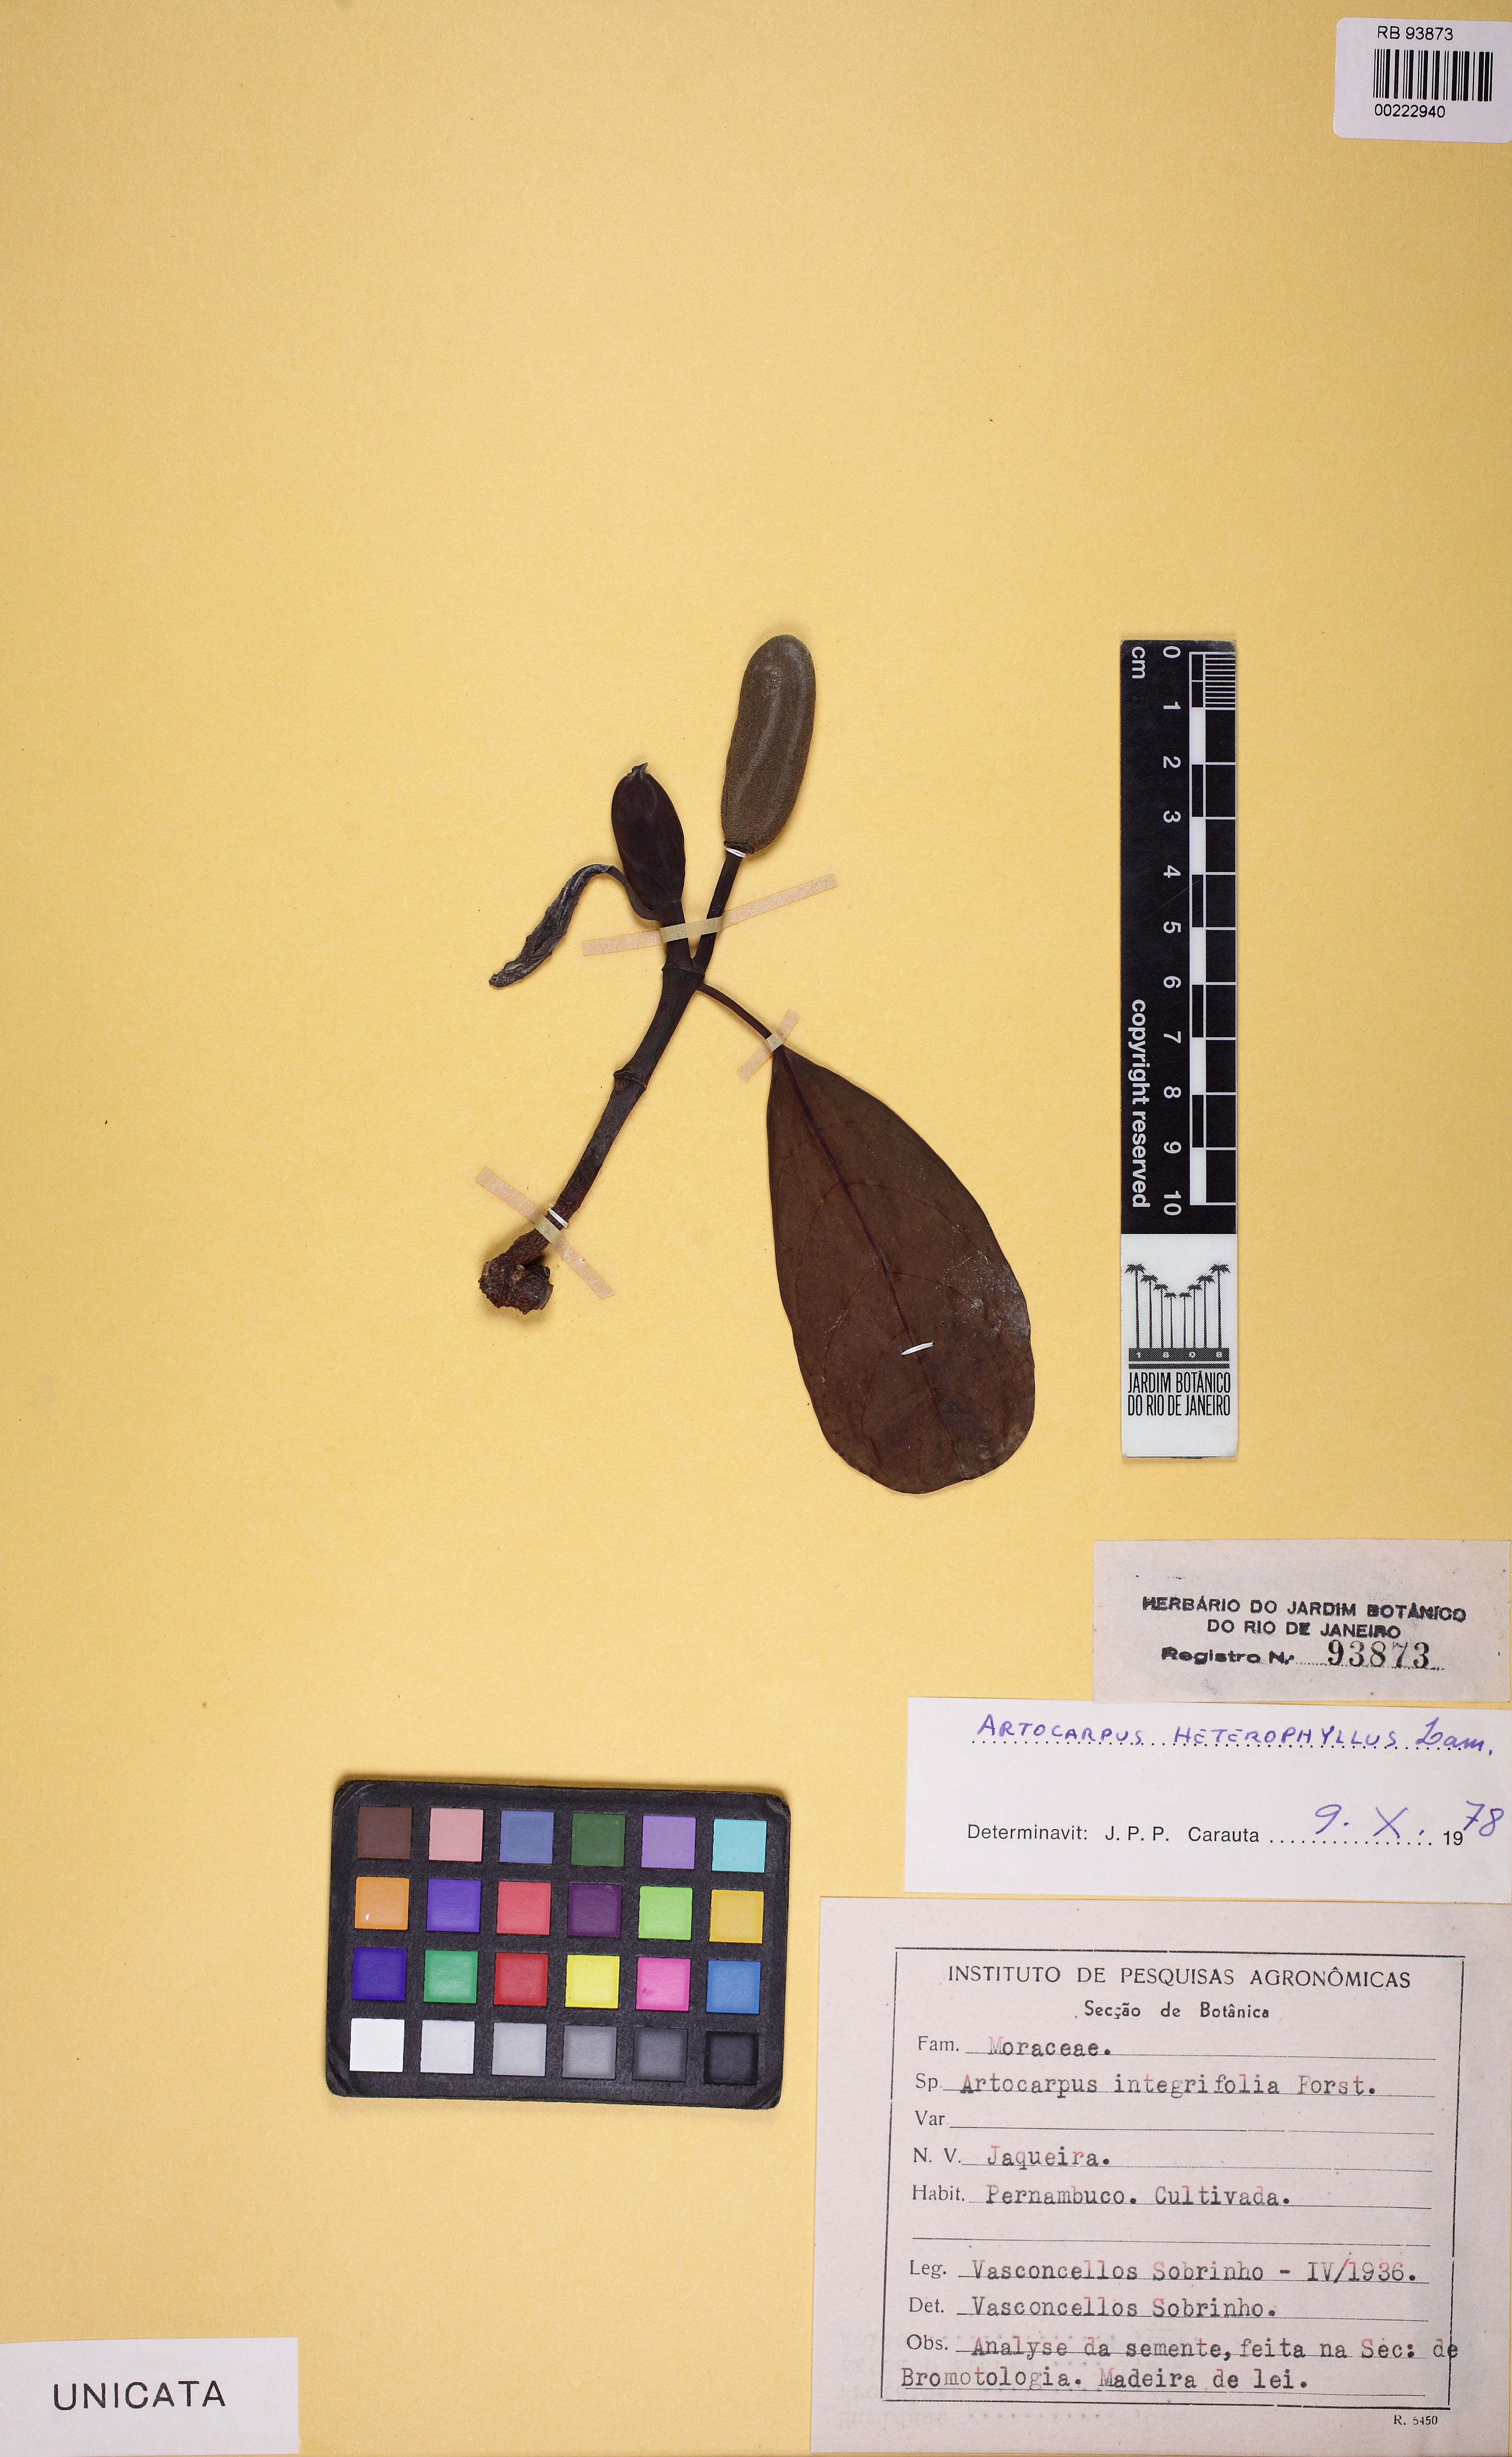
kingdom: Plantae
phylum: Tracheophyta
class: Magnoliopsida
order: Rosales
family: Moraceae
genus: Artocarpus
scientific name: Artocarpus heterophyllus
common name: Jackfruit
